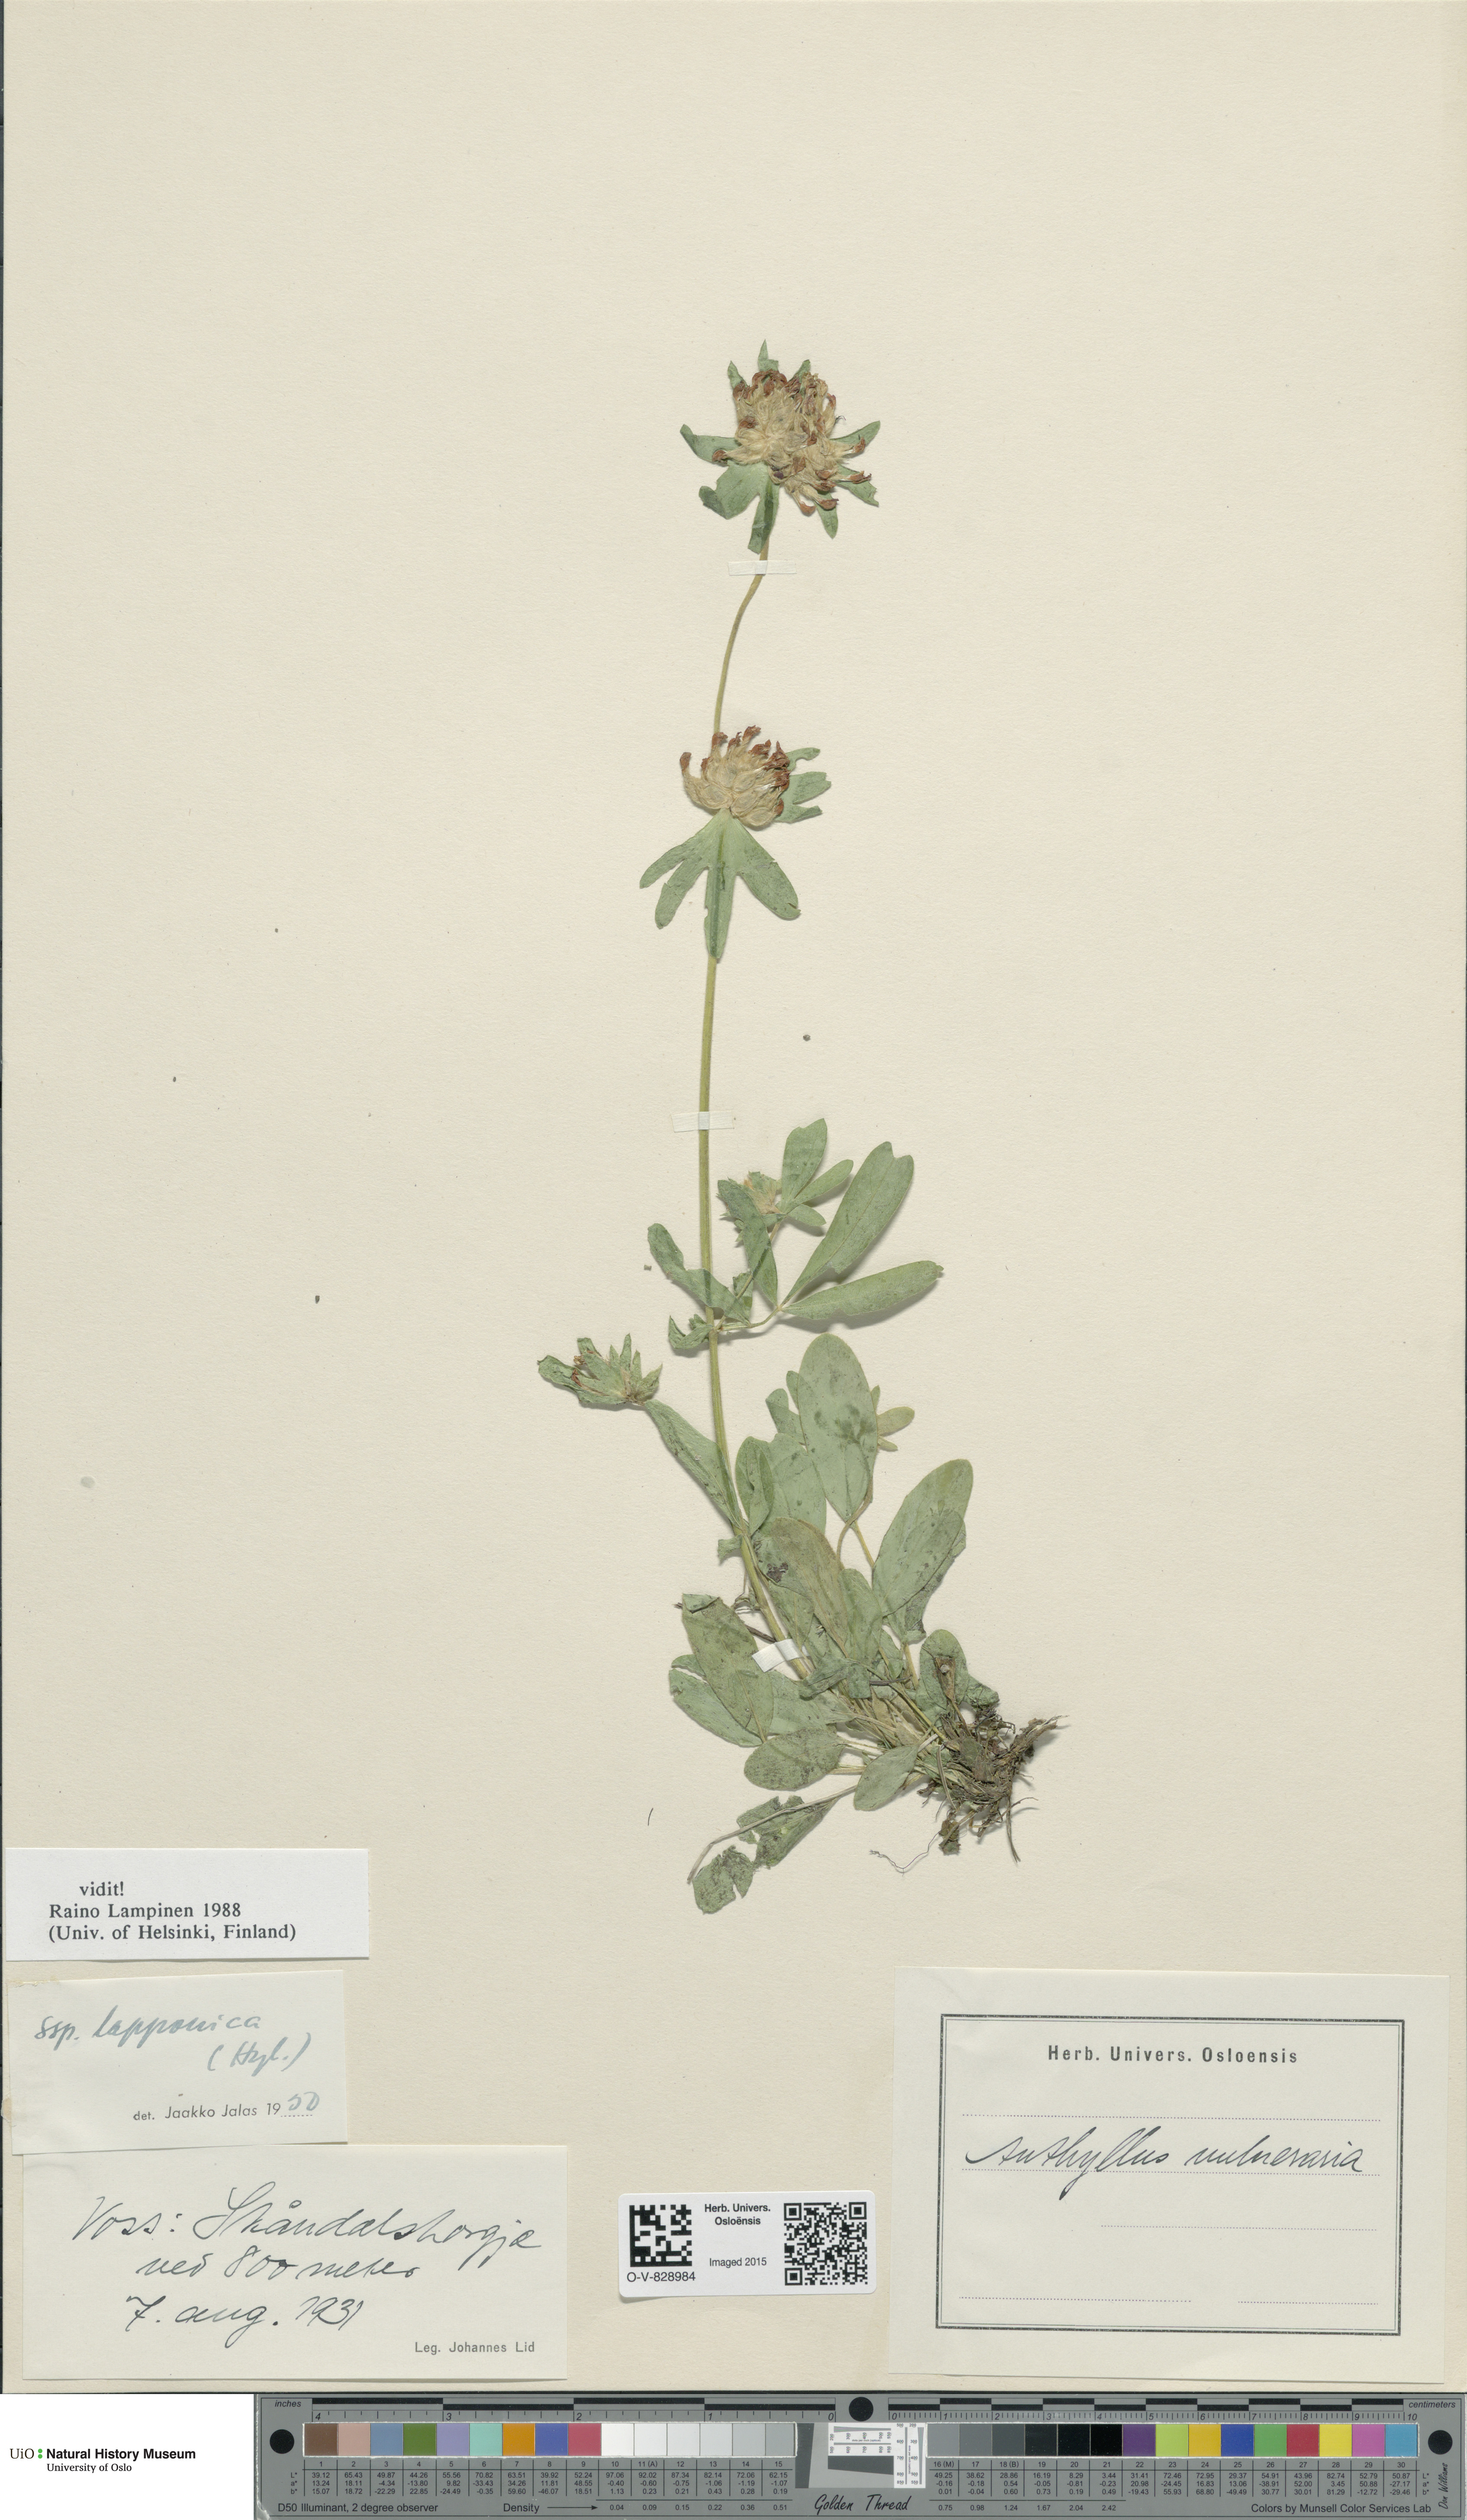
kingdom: Plantae
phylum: Tracheophyta
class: Magnoliopsida
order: Fabales
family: Fabaceae
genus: Anthyllis
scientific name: Anthyllis vulneraria
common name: Kidney vetch
